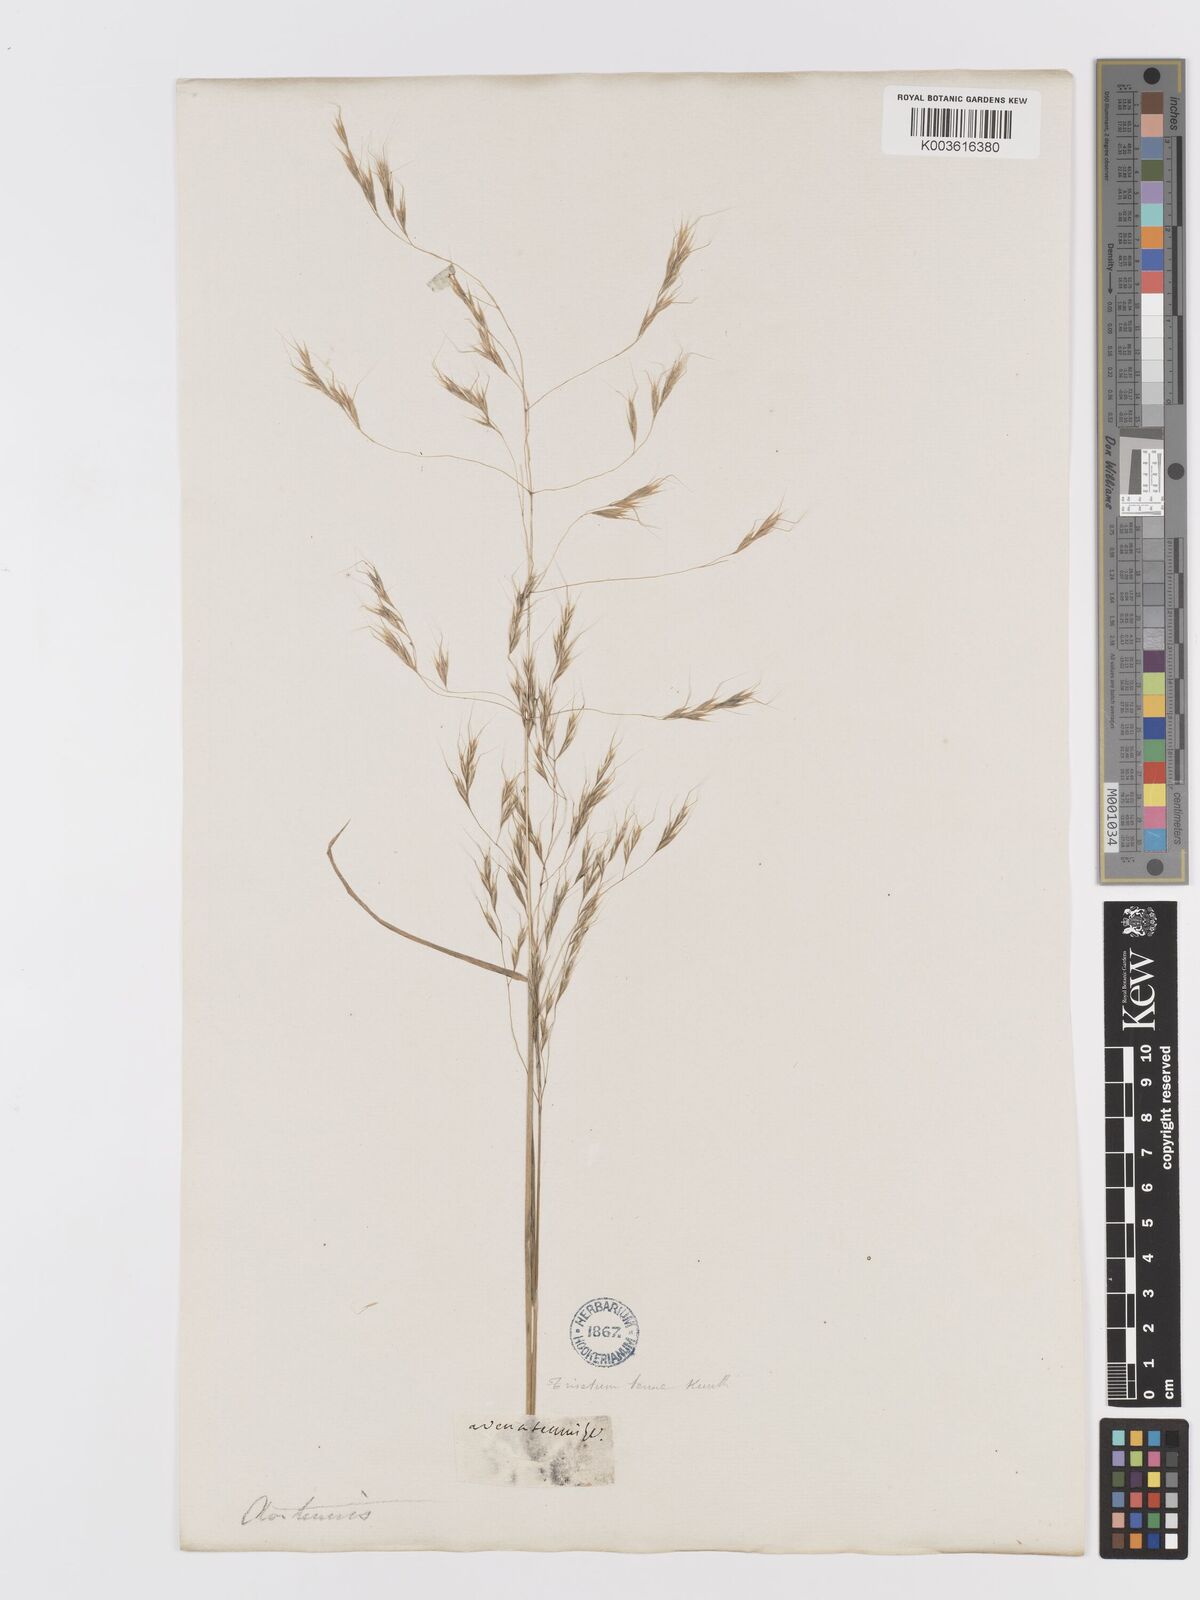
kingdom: Plantae
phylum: Tracheophyta
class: Liliopsida
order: Poales
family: Poaceae
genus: Ventenata
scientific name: Ventenata dubia
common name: North africa grass
